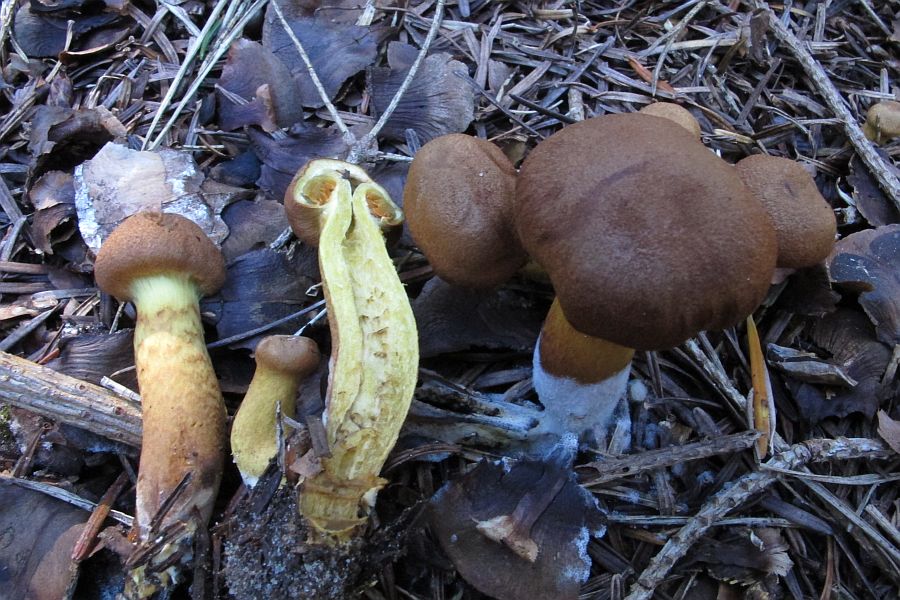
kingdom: Fungi
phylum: Basidiomycota
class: Agaricomycetes
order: Agaricales
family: Cortinariaceae
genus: Cortinarius
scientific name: Cortinarius
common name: cinnoberbladet slørhat
